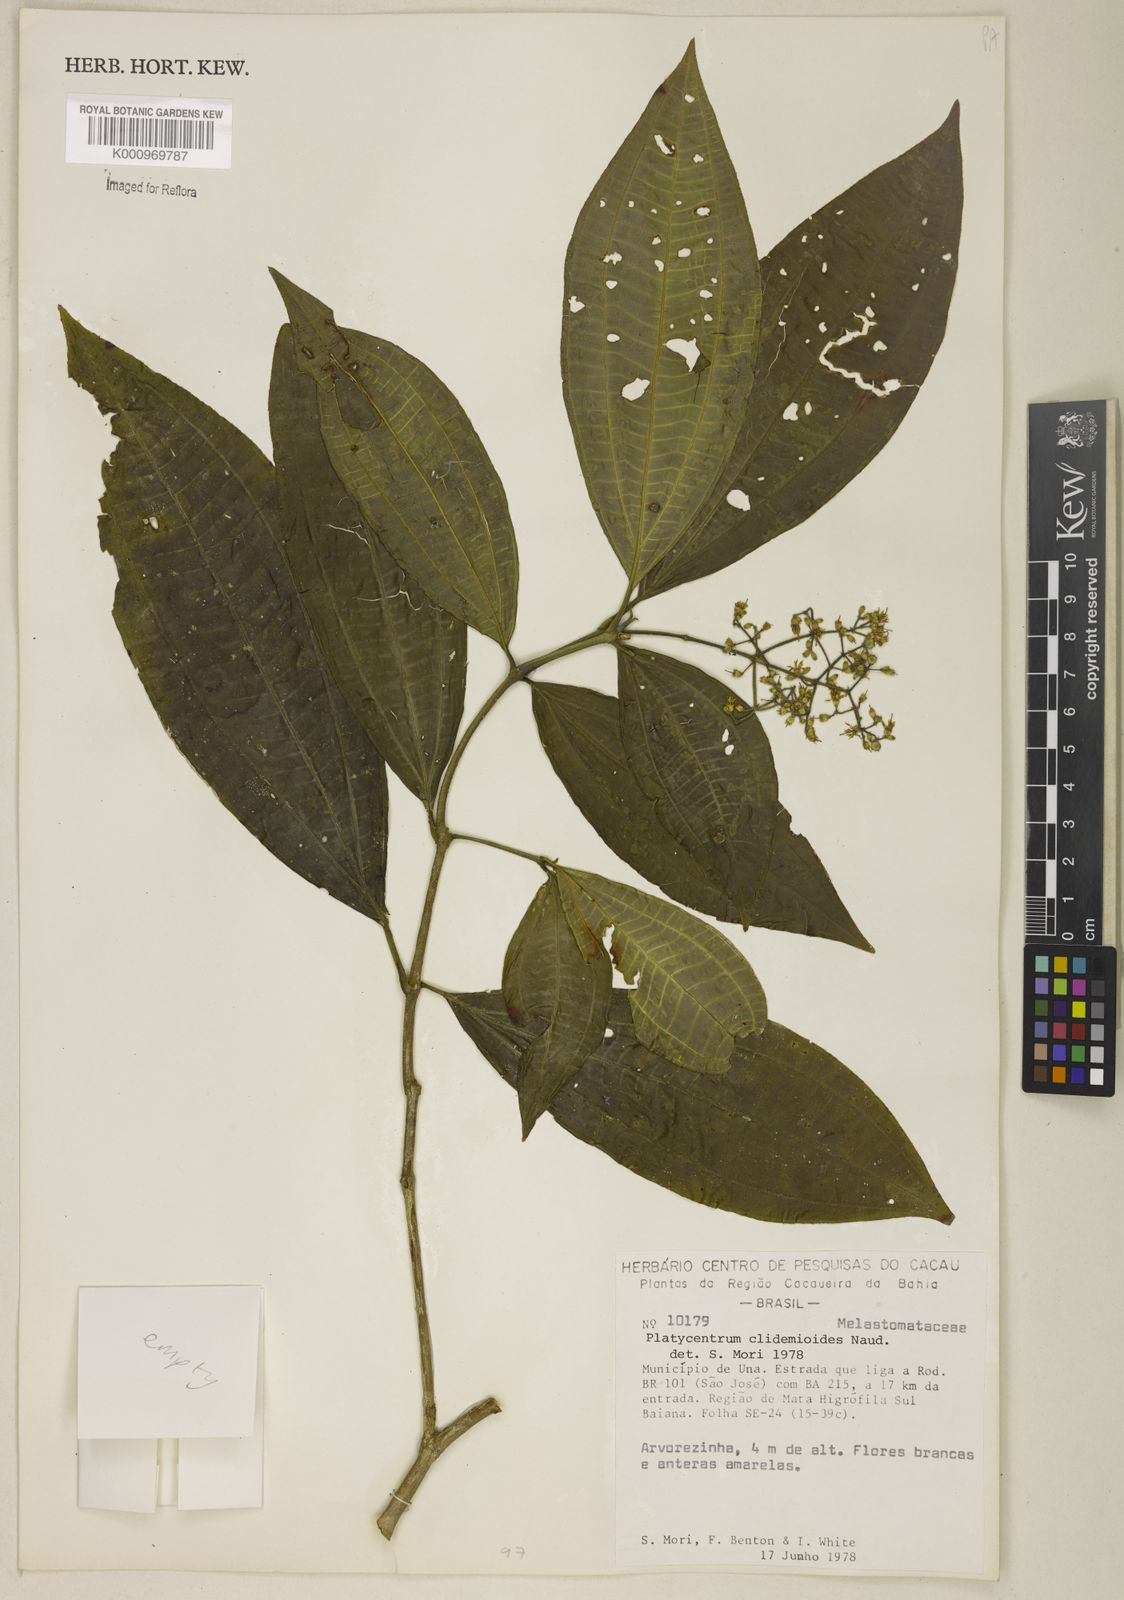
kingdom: Plantae
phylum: Tracheophyta
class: Magnoliopsida
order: Myrtales
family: Melastomataceae
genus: Miconia
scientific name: Miconia stenopetala
